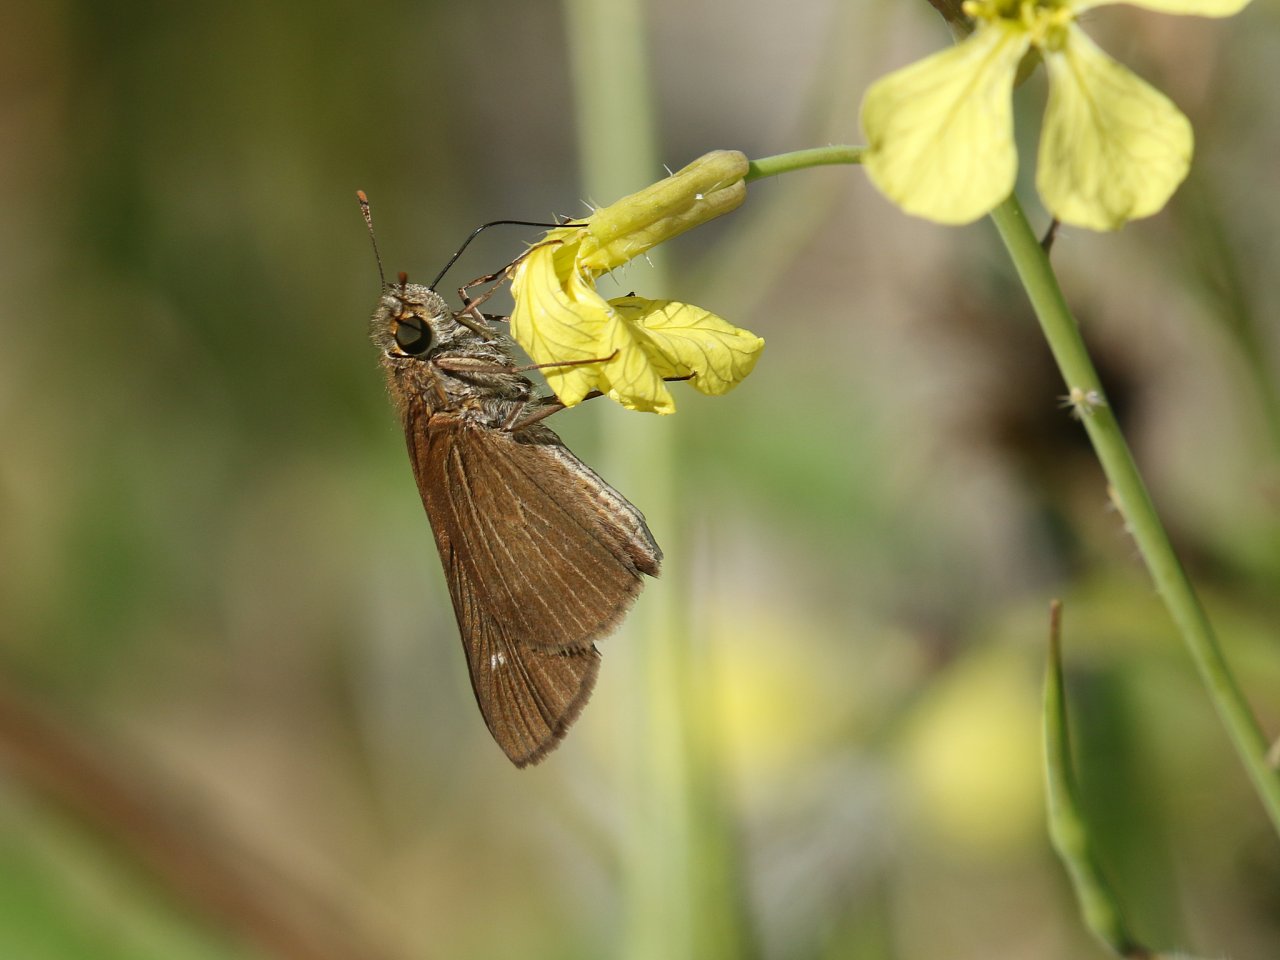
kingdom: Animalia
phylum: Arthropoda
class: Insecta
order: Lepidoptera
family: Hesperiidae
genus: Panoquina
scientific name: Panoquina ocola
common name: Ocola Skipper
